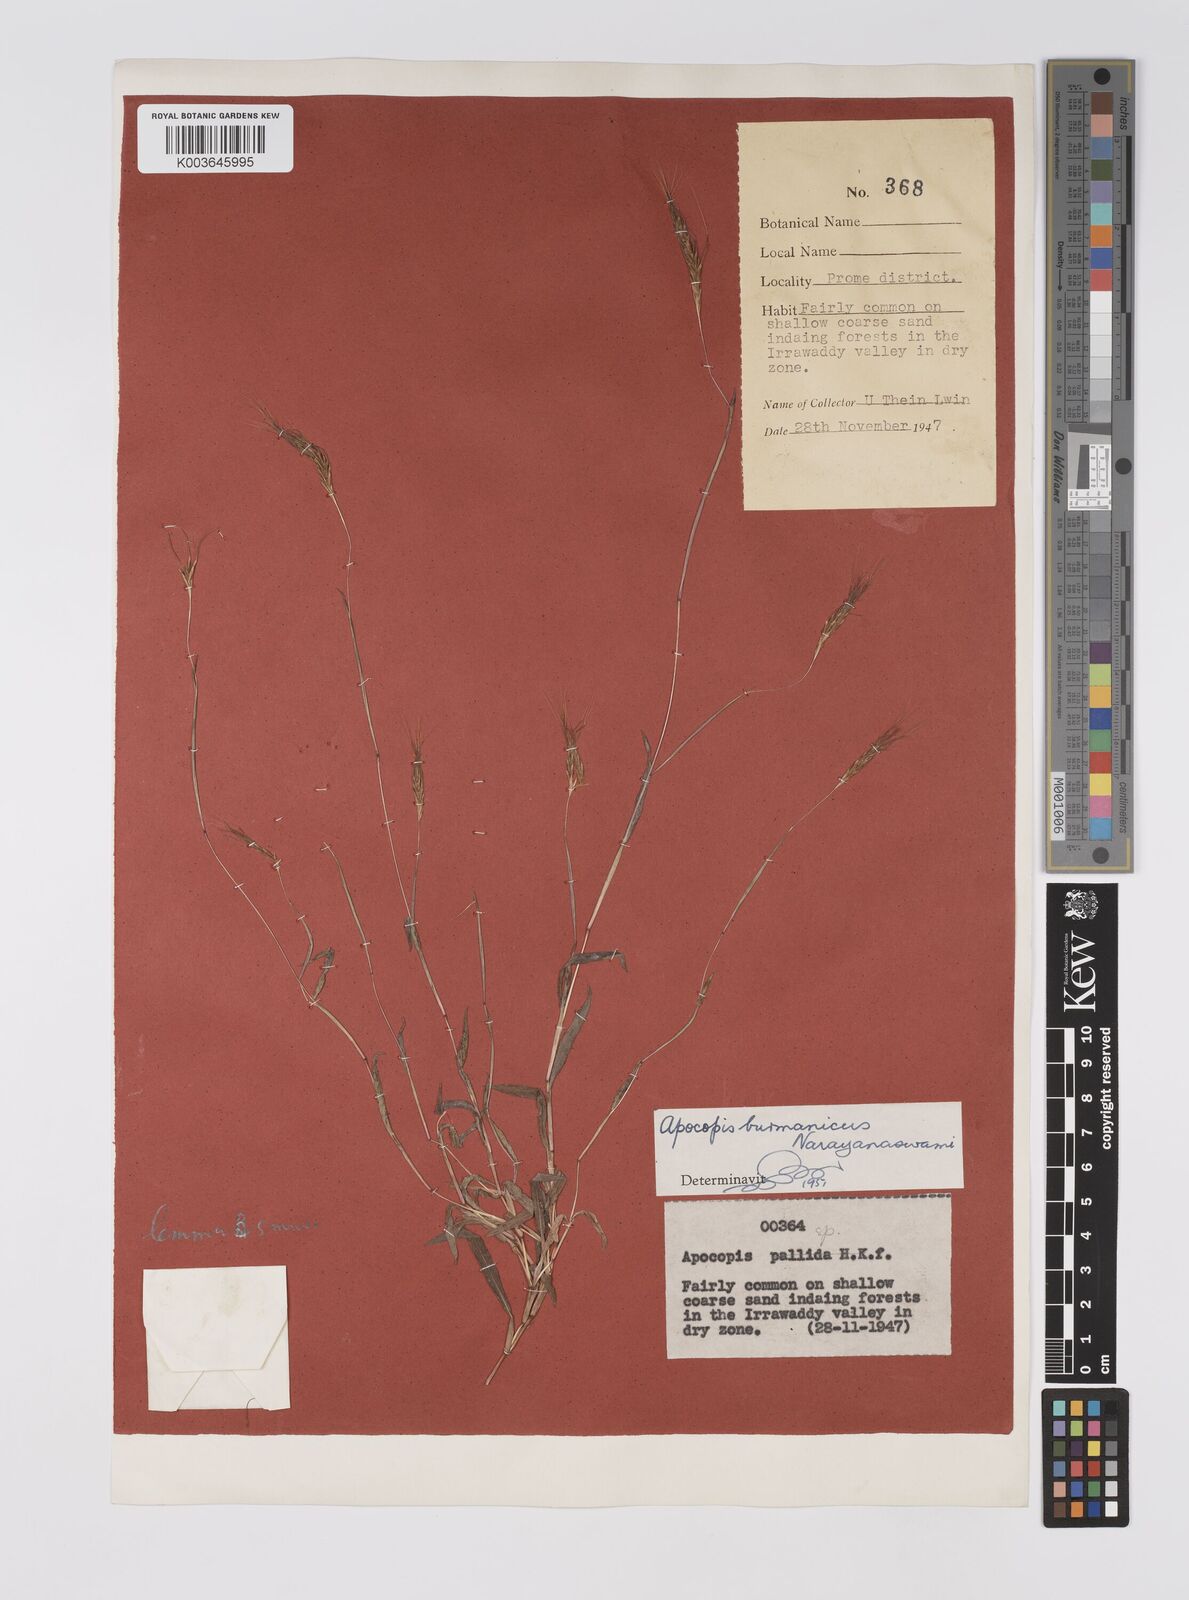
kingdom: Plantae
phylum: Tracheophyta
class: Liliopsida
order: Poales
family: Poaceae
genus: Apocopis
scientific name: Apocopis burmanicus
